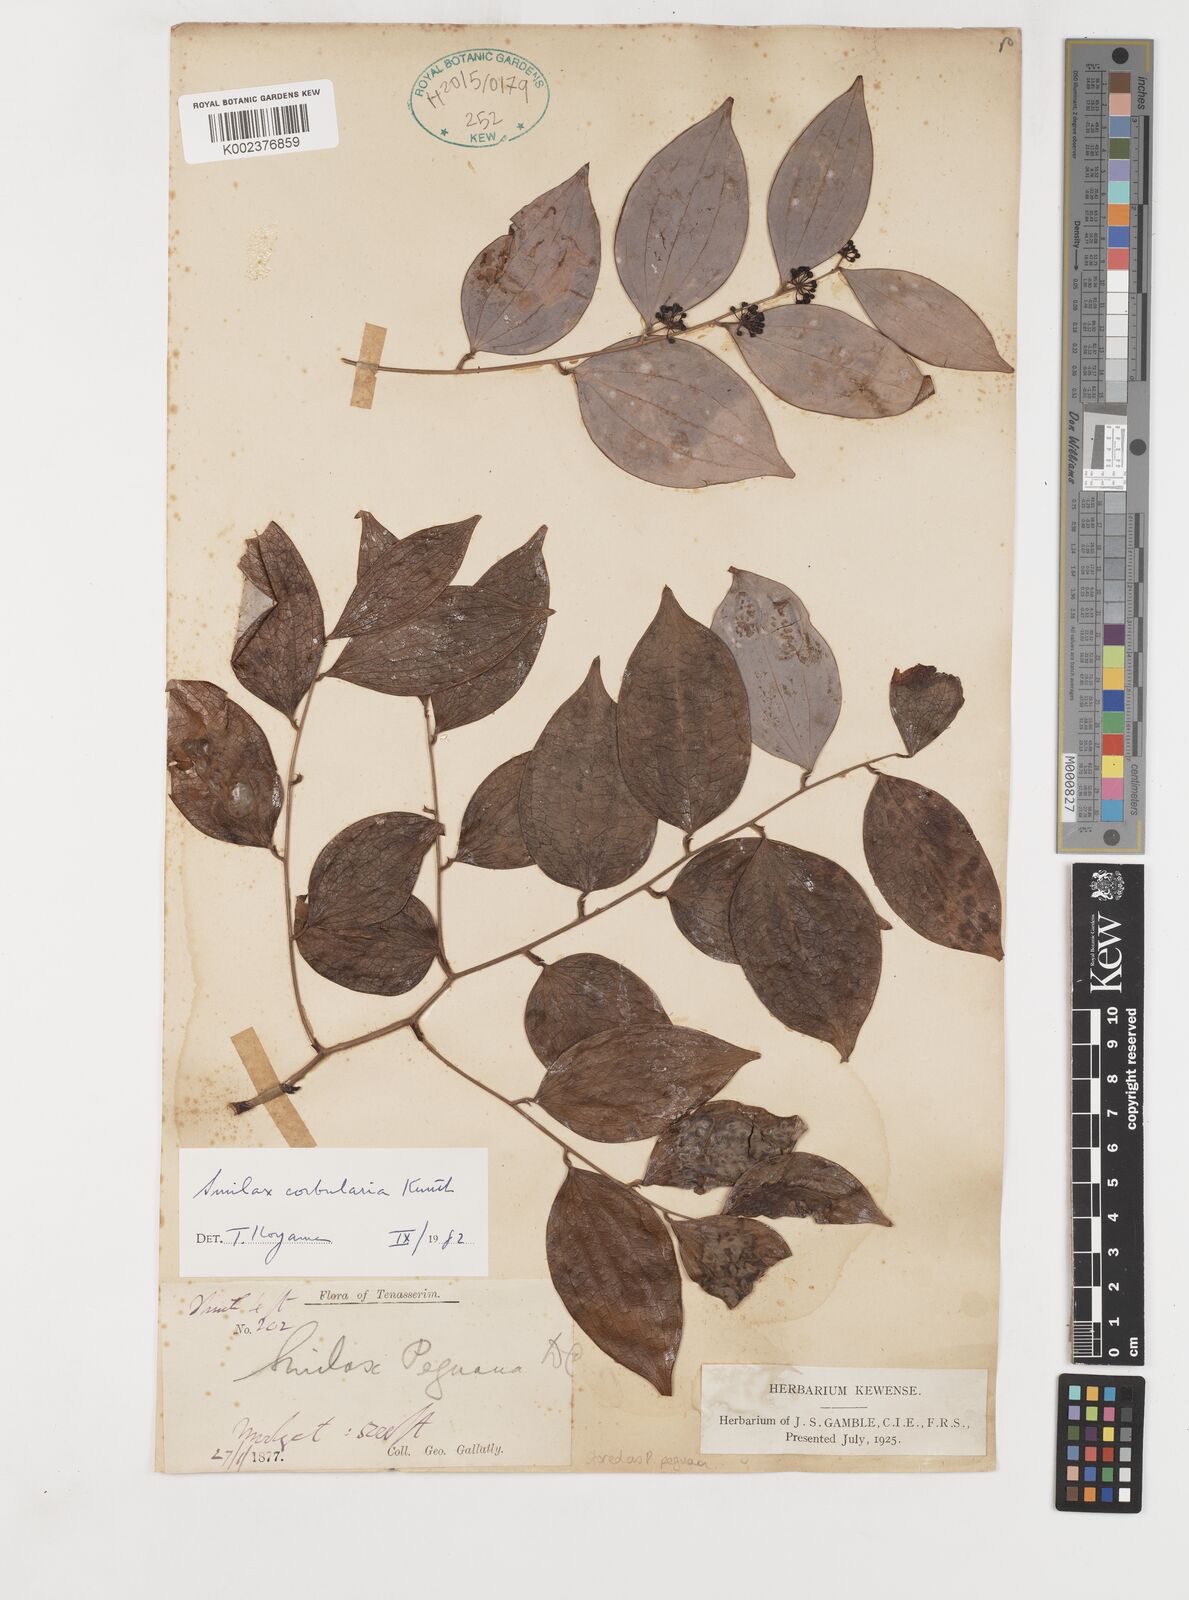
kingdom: Plantae
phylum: Tracheophyta
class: Liliopsida
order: Liliales
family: Smilacaceae
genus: Smilax
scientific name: Smilax corbularia
